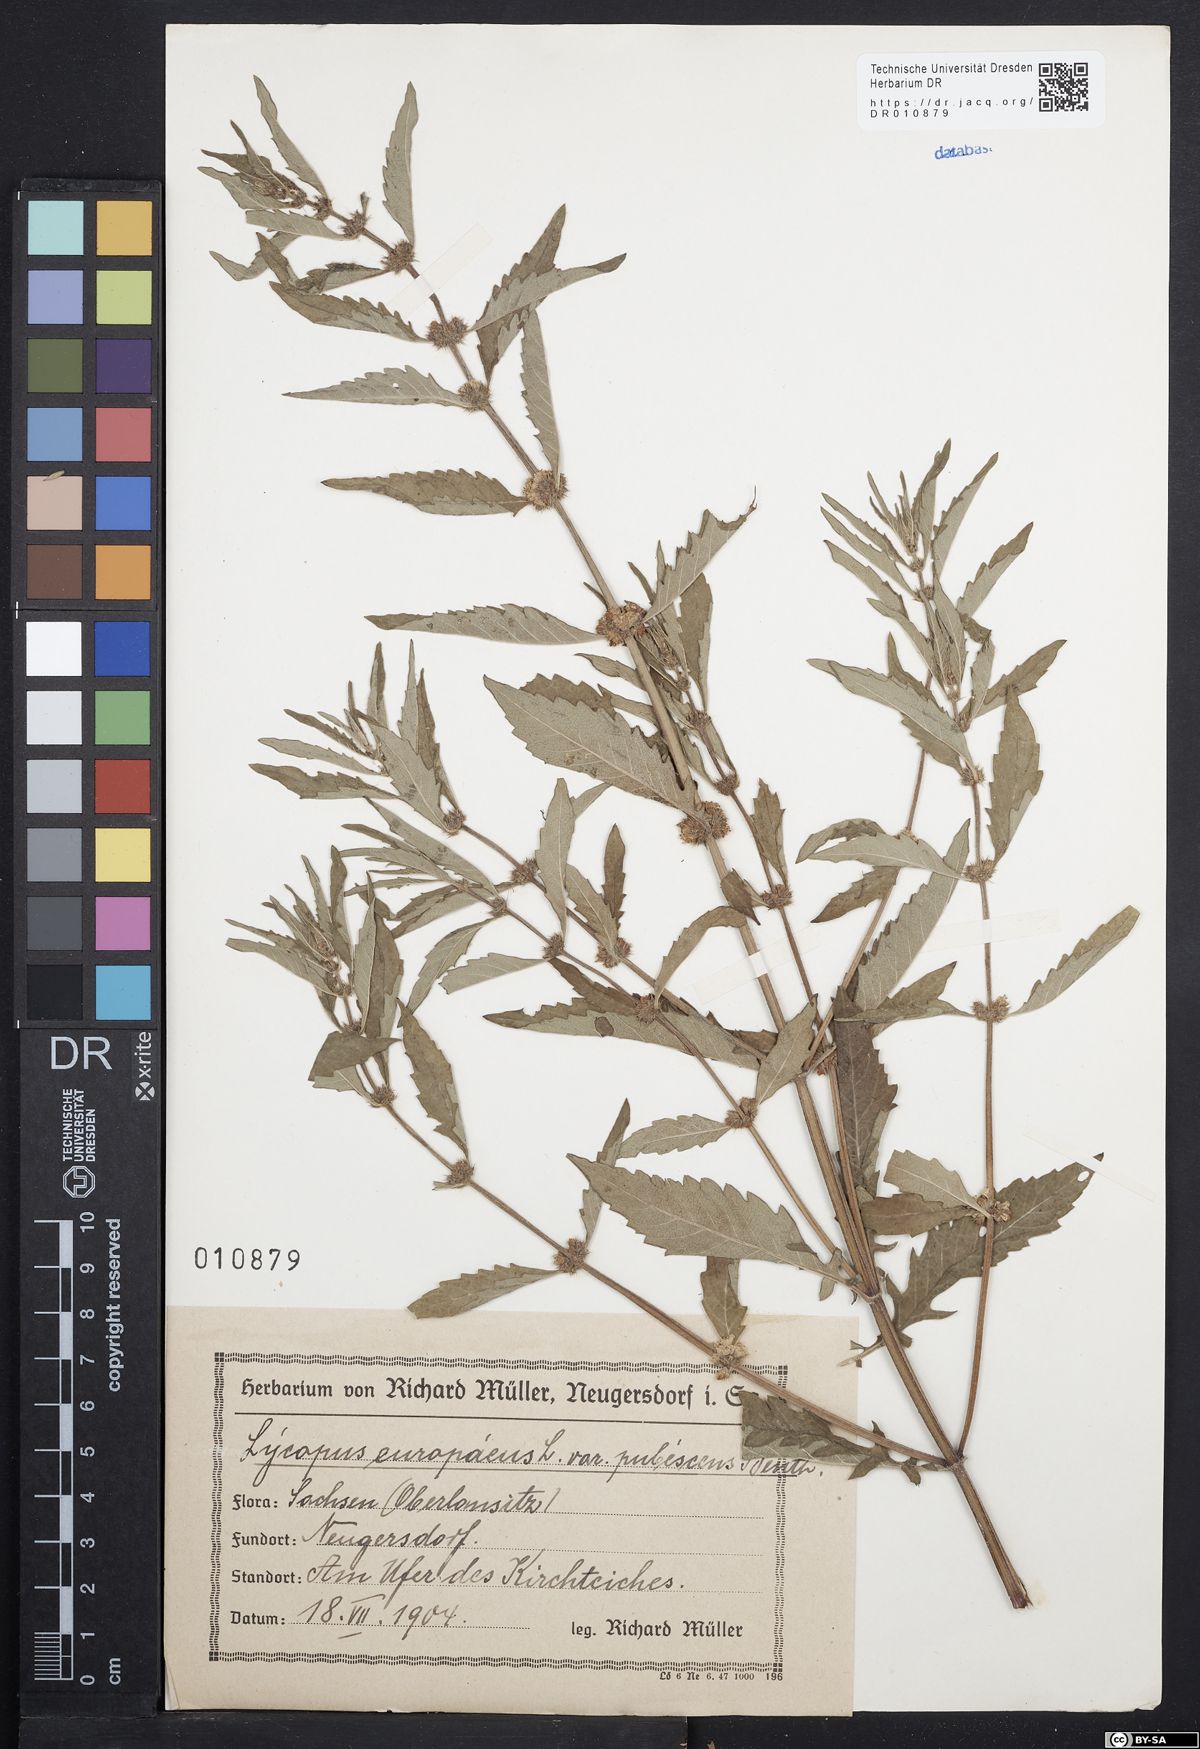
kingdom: Plantae
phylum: Tracheophyta
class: Magnoliopsida
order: Lamiales
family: Lamiaceae
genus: Lycopus
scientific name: Lycopus europaeus
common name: European bugleweed
